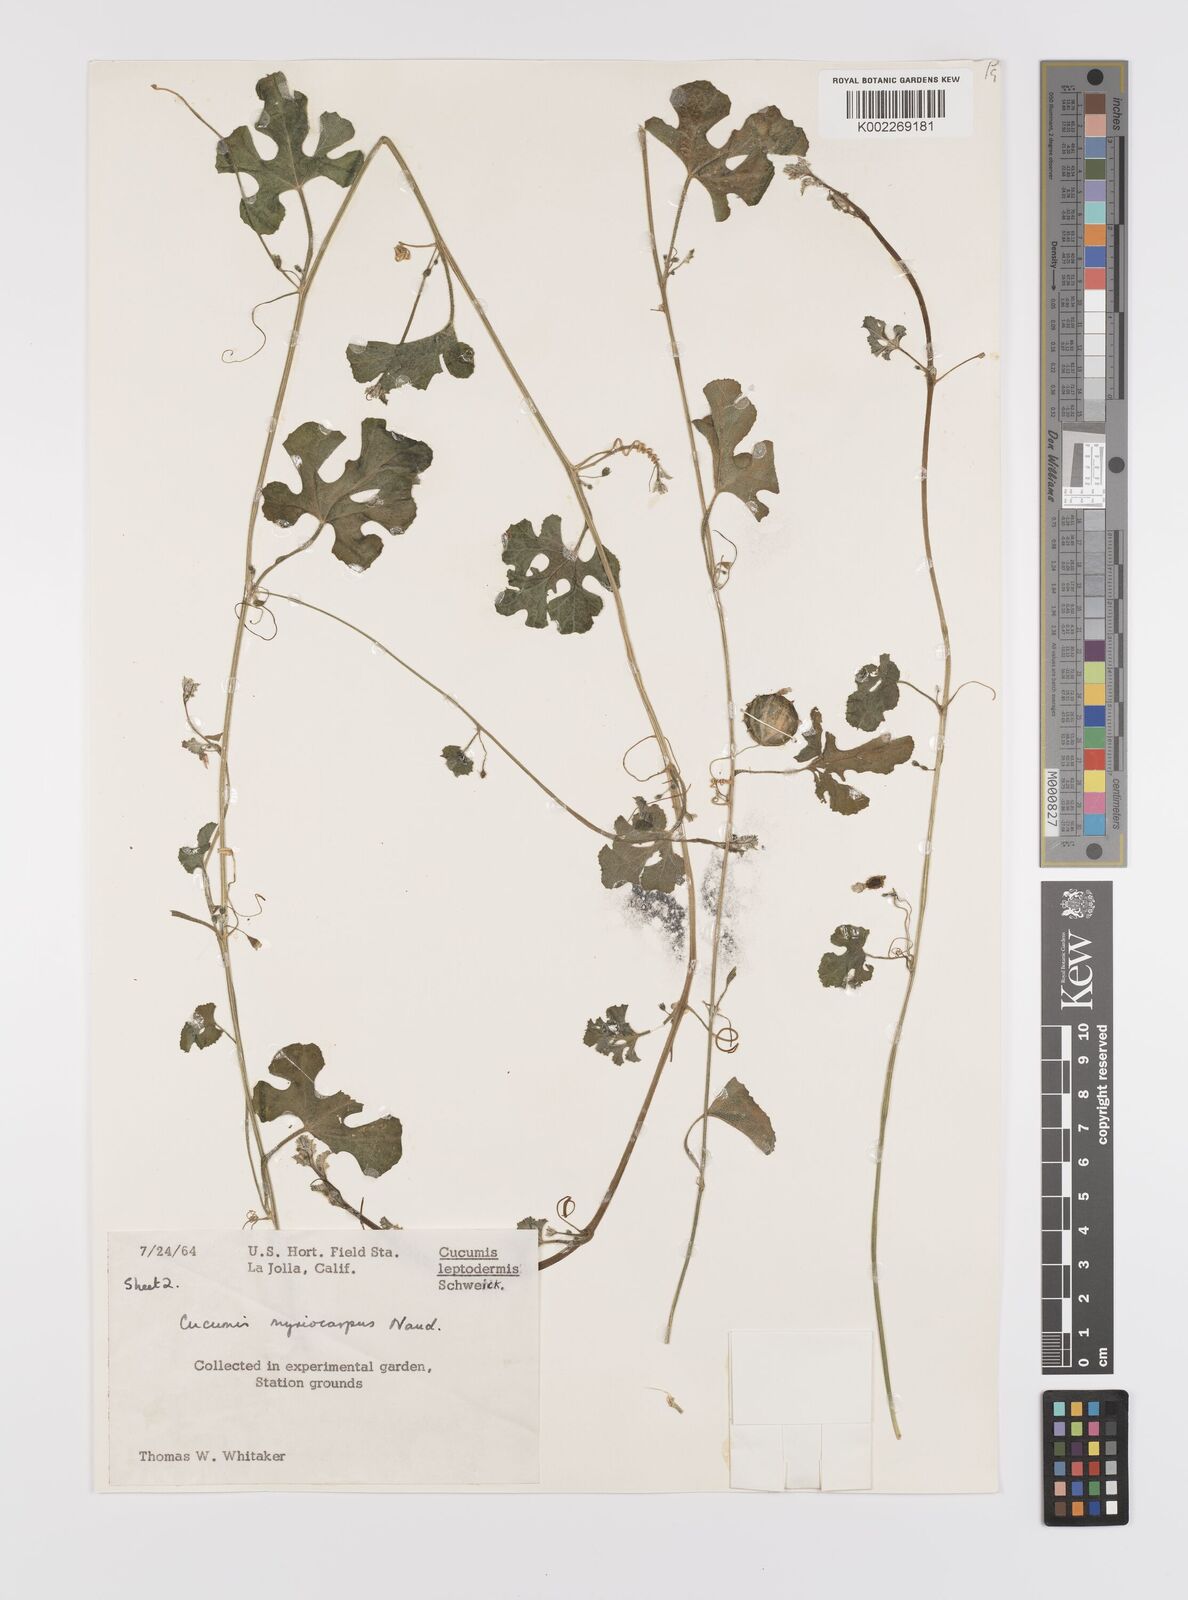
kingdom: Plantae
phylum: Tracheophyta
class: Magnoliopsida
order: Cucurbitales
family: Cucurbitaceae
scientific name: Cucurbitaceae
